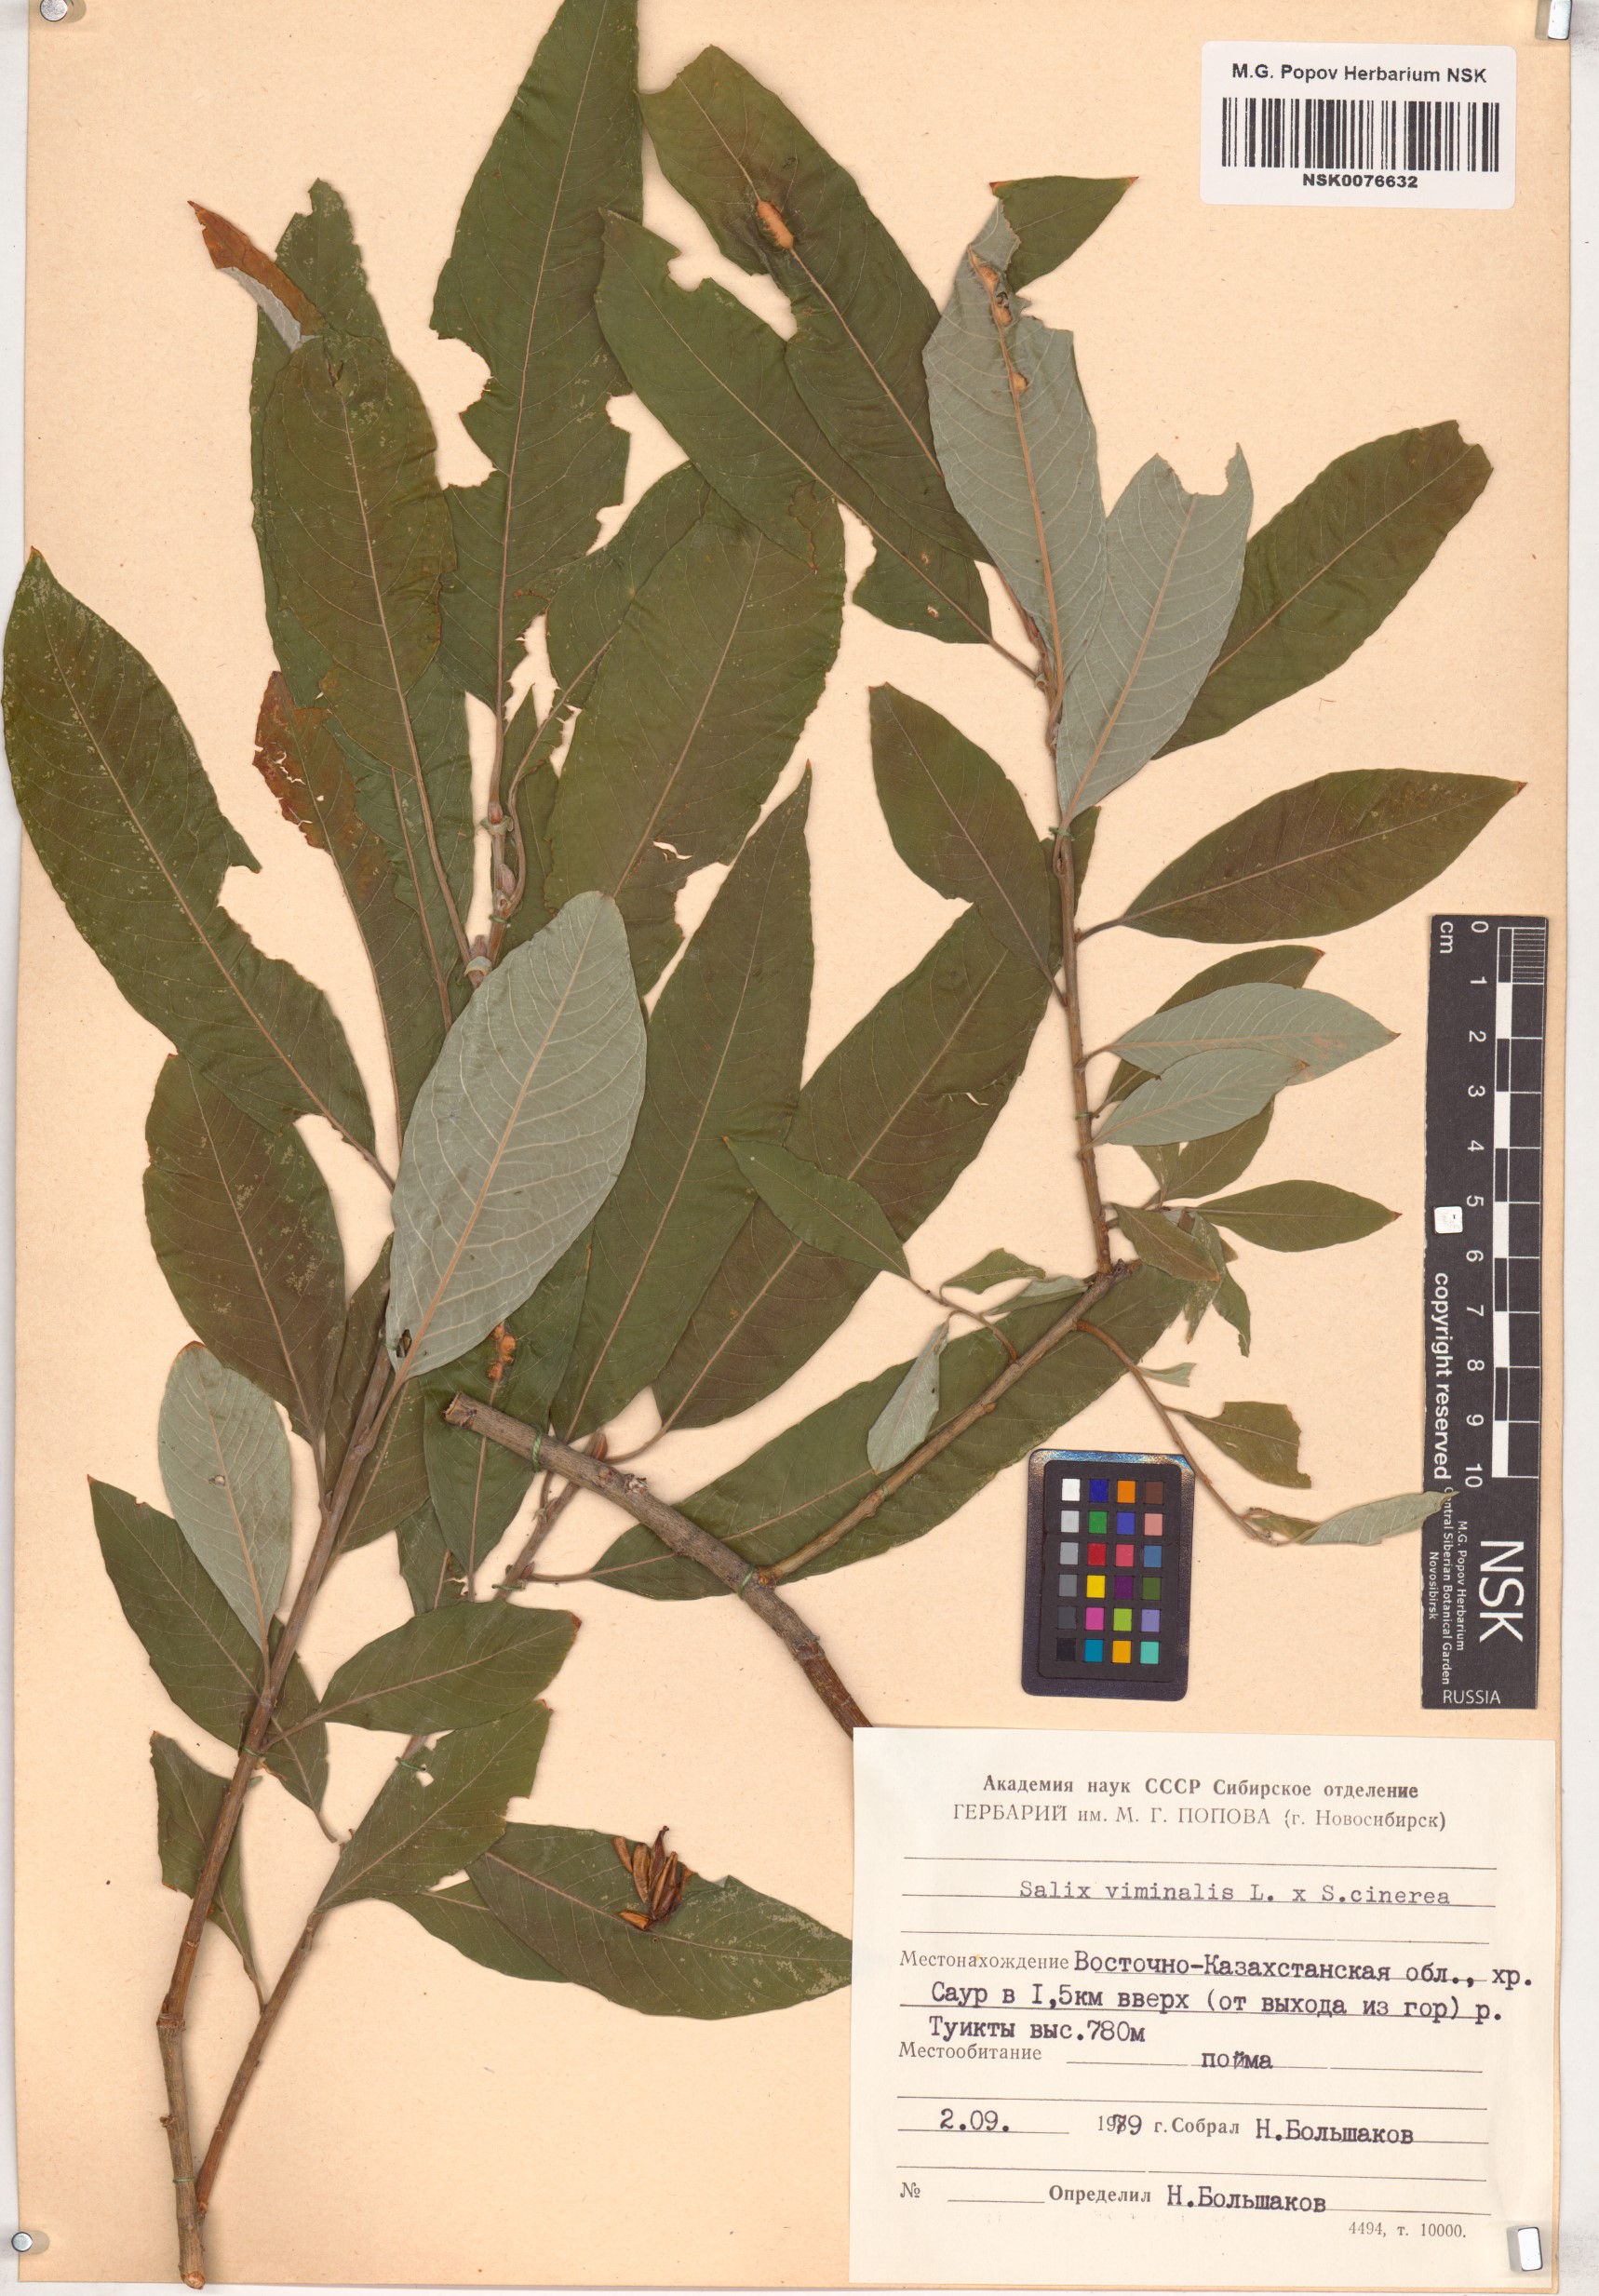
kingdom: Plantae
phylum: Tracheophyta
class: Magnoliopsida
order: Malpighiales
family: Salicaceae
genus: Salix
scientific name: Salix
